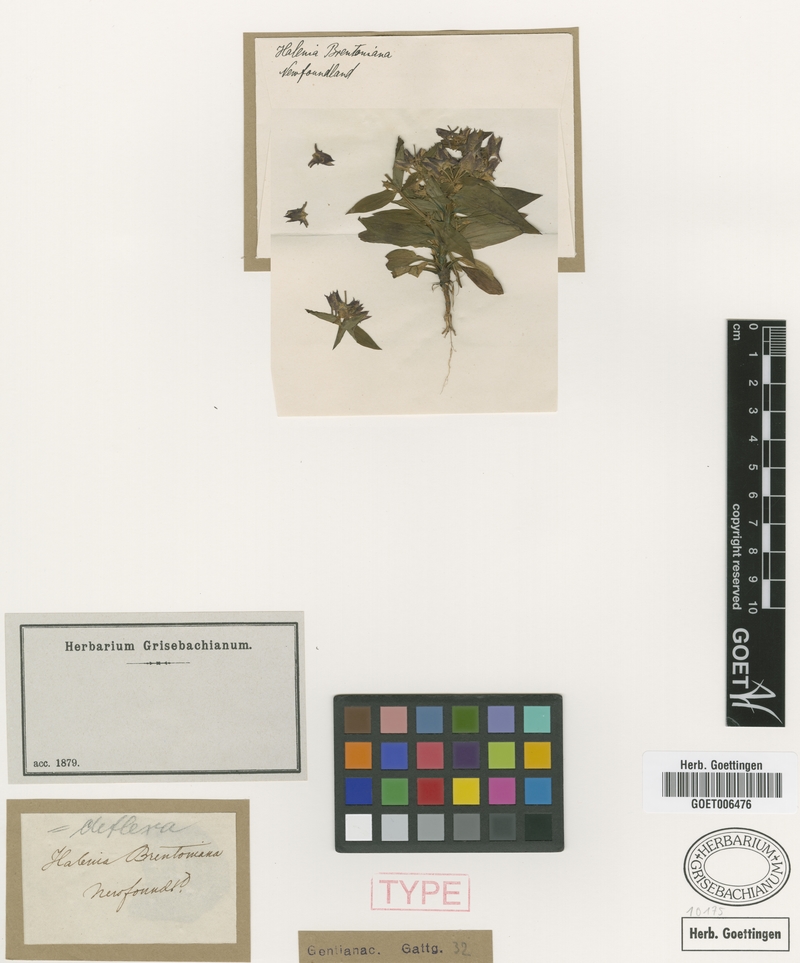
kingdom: Plantae
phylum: Tracheophyta
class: Magnoliopsida
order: Gentianales
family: Gentianaceae
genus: Halenia
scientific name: Halenia deflexa
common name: American spurred gentian
